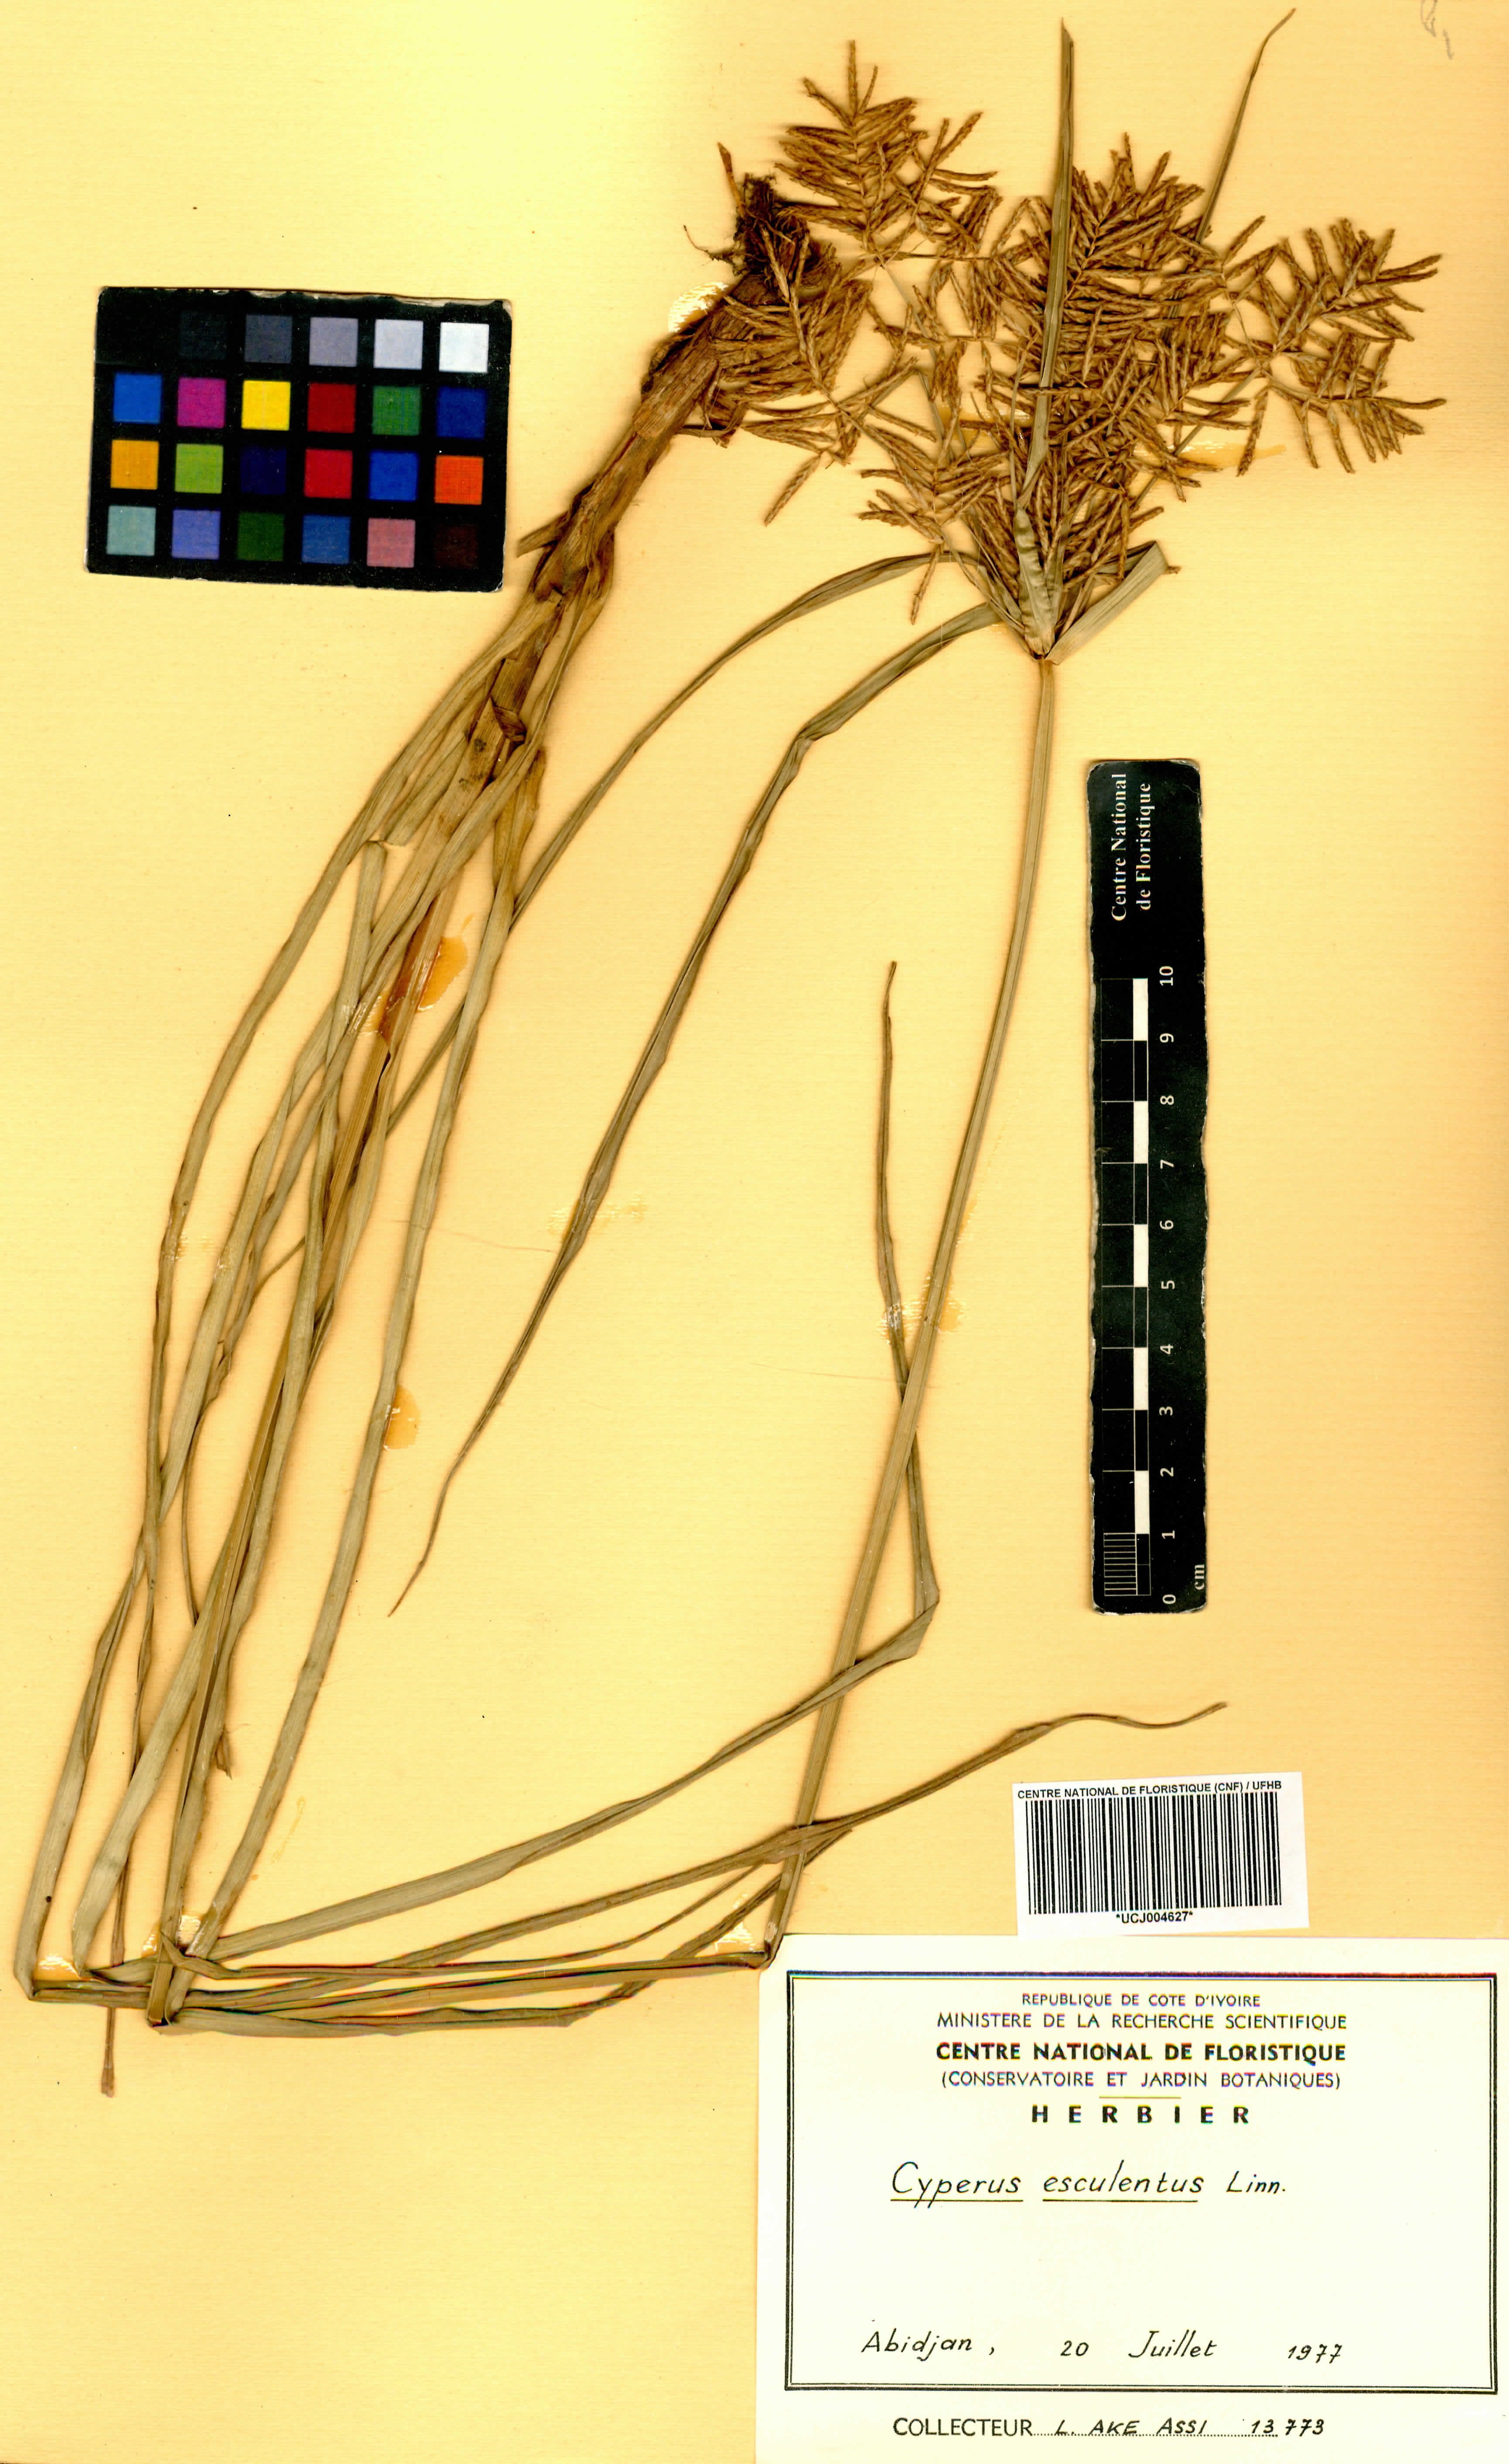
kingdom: Plantae
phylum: Tracheophyta
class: Liliopsida
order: Poales
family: Cyperaceae
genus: Cyperus
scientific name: Cyperus esculentus
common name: Yellow nutsedge
